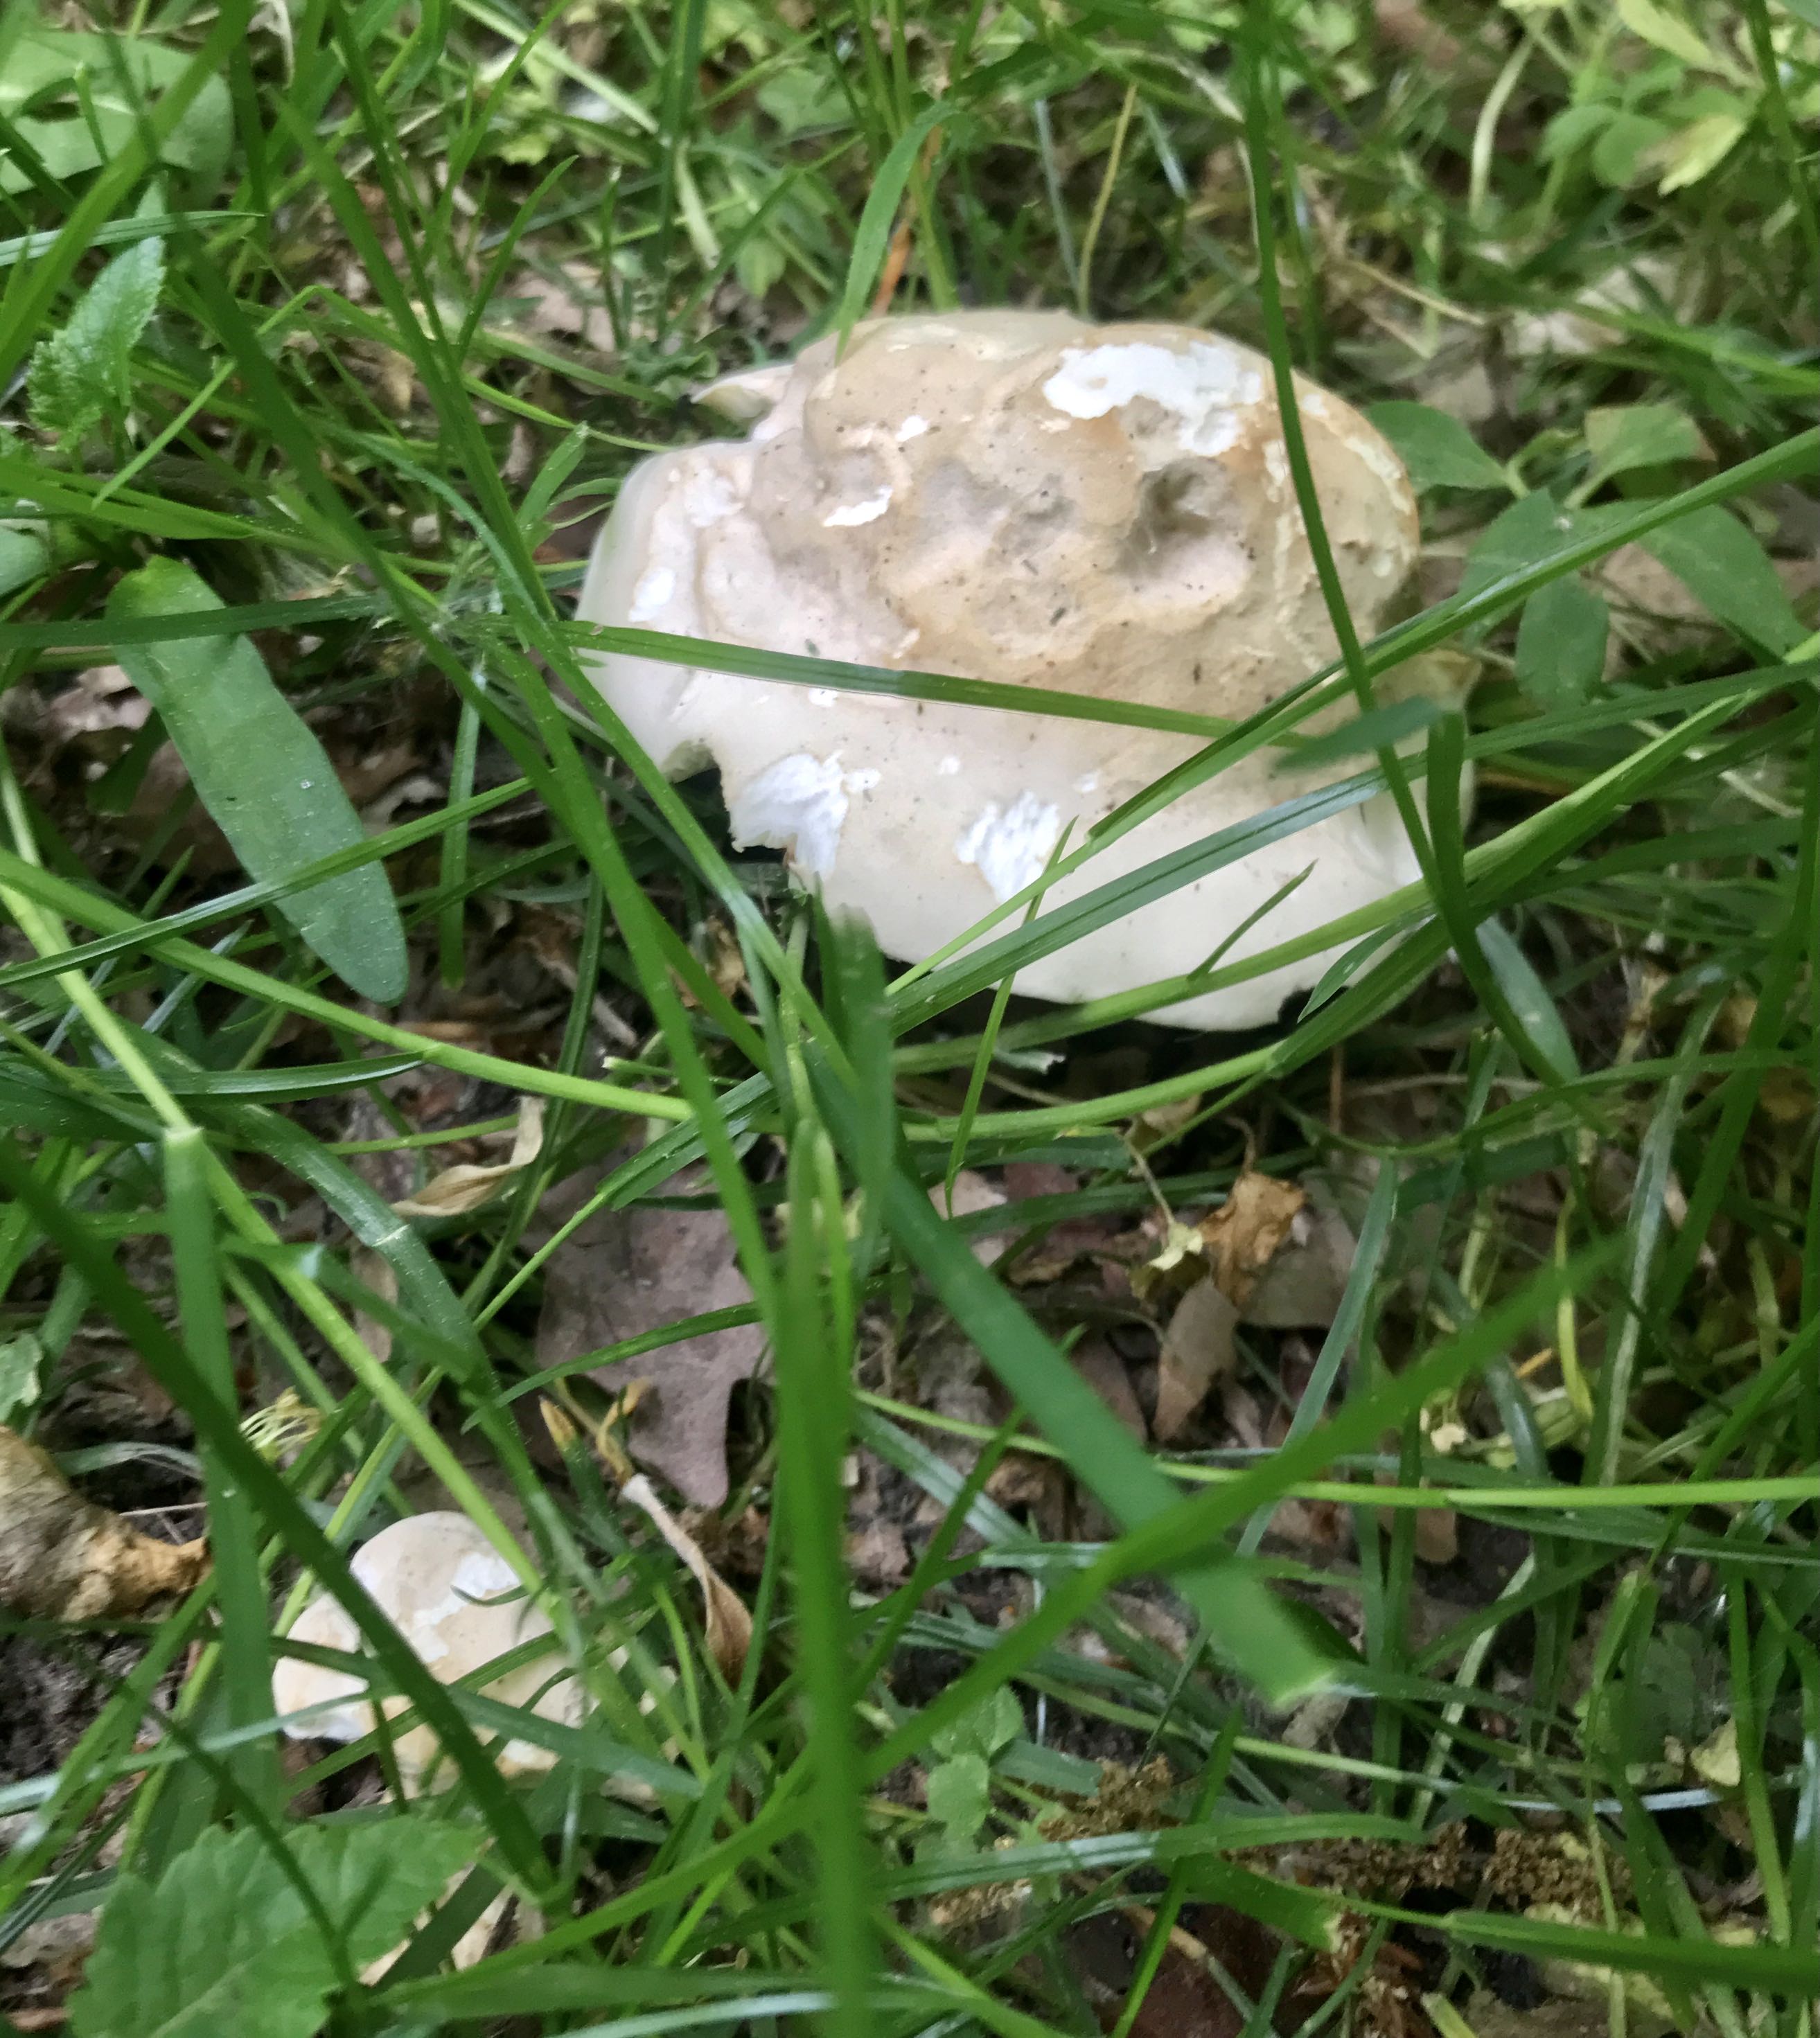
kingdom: Fungi
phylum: Basidiomycota
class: Agaricomycetes
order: Agaricales
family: Lyophyllaceae
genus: Calocybe
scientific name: Calocybe gambosa
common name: vårmusseron
